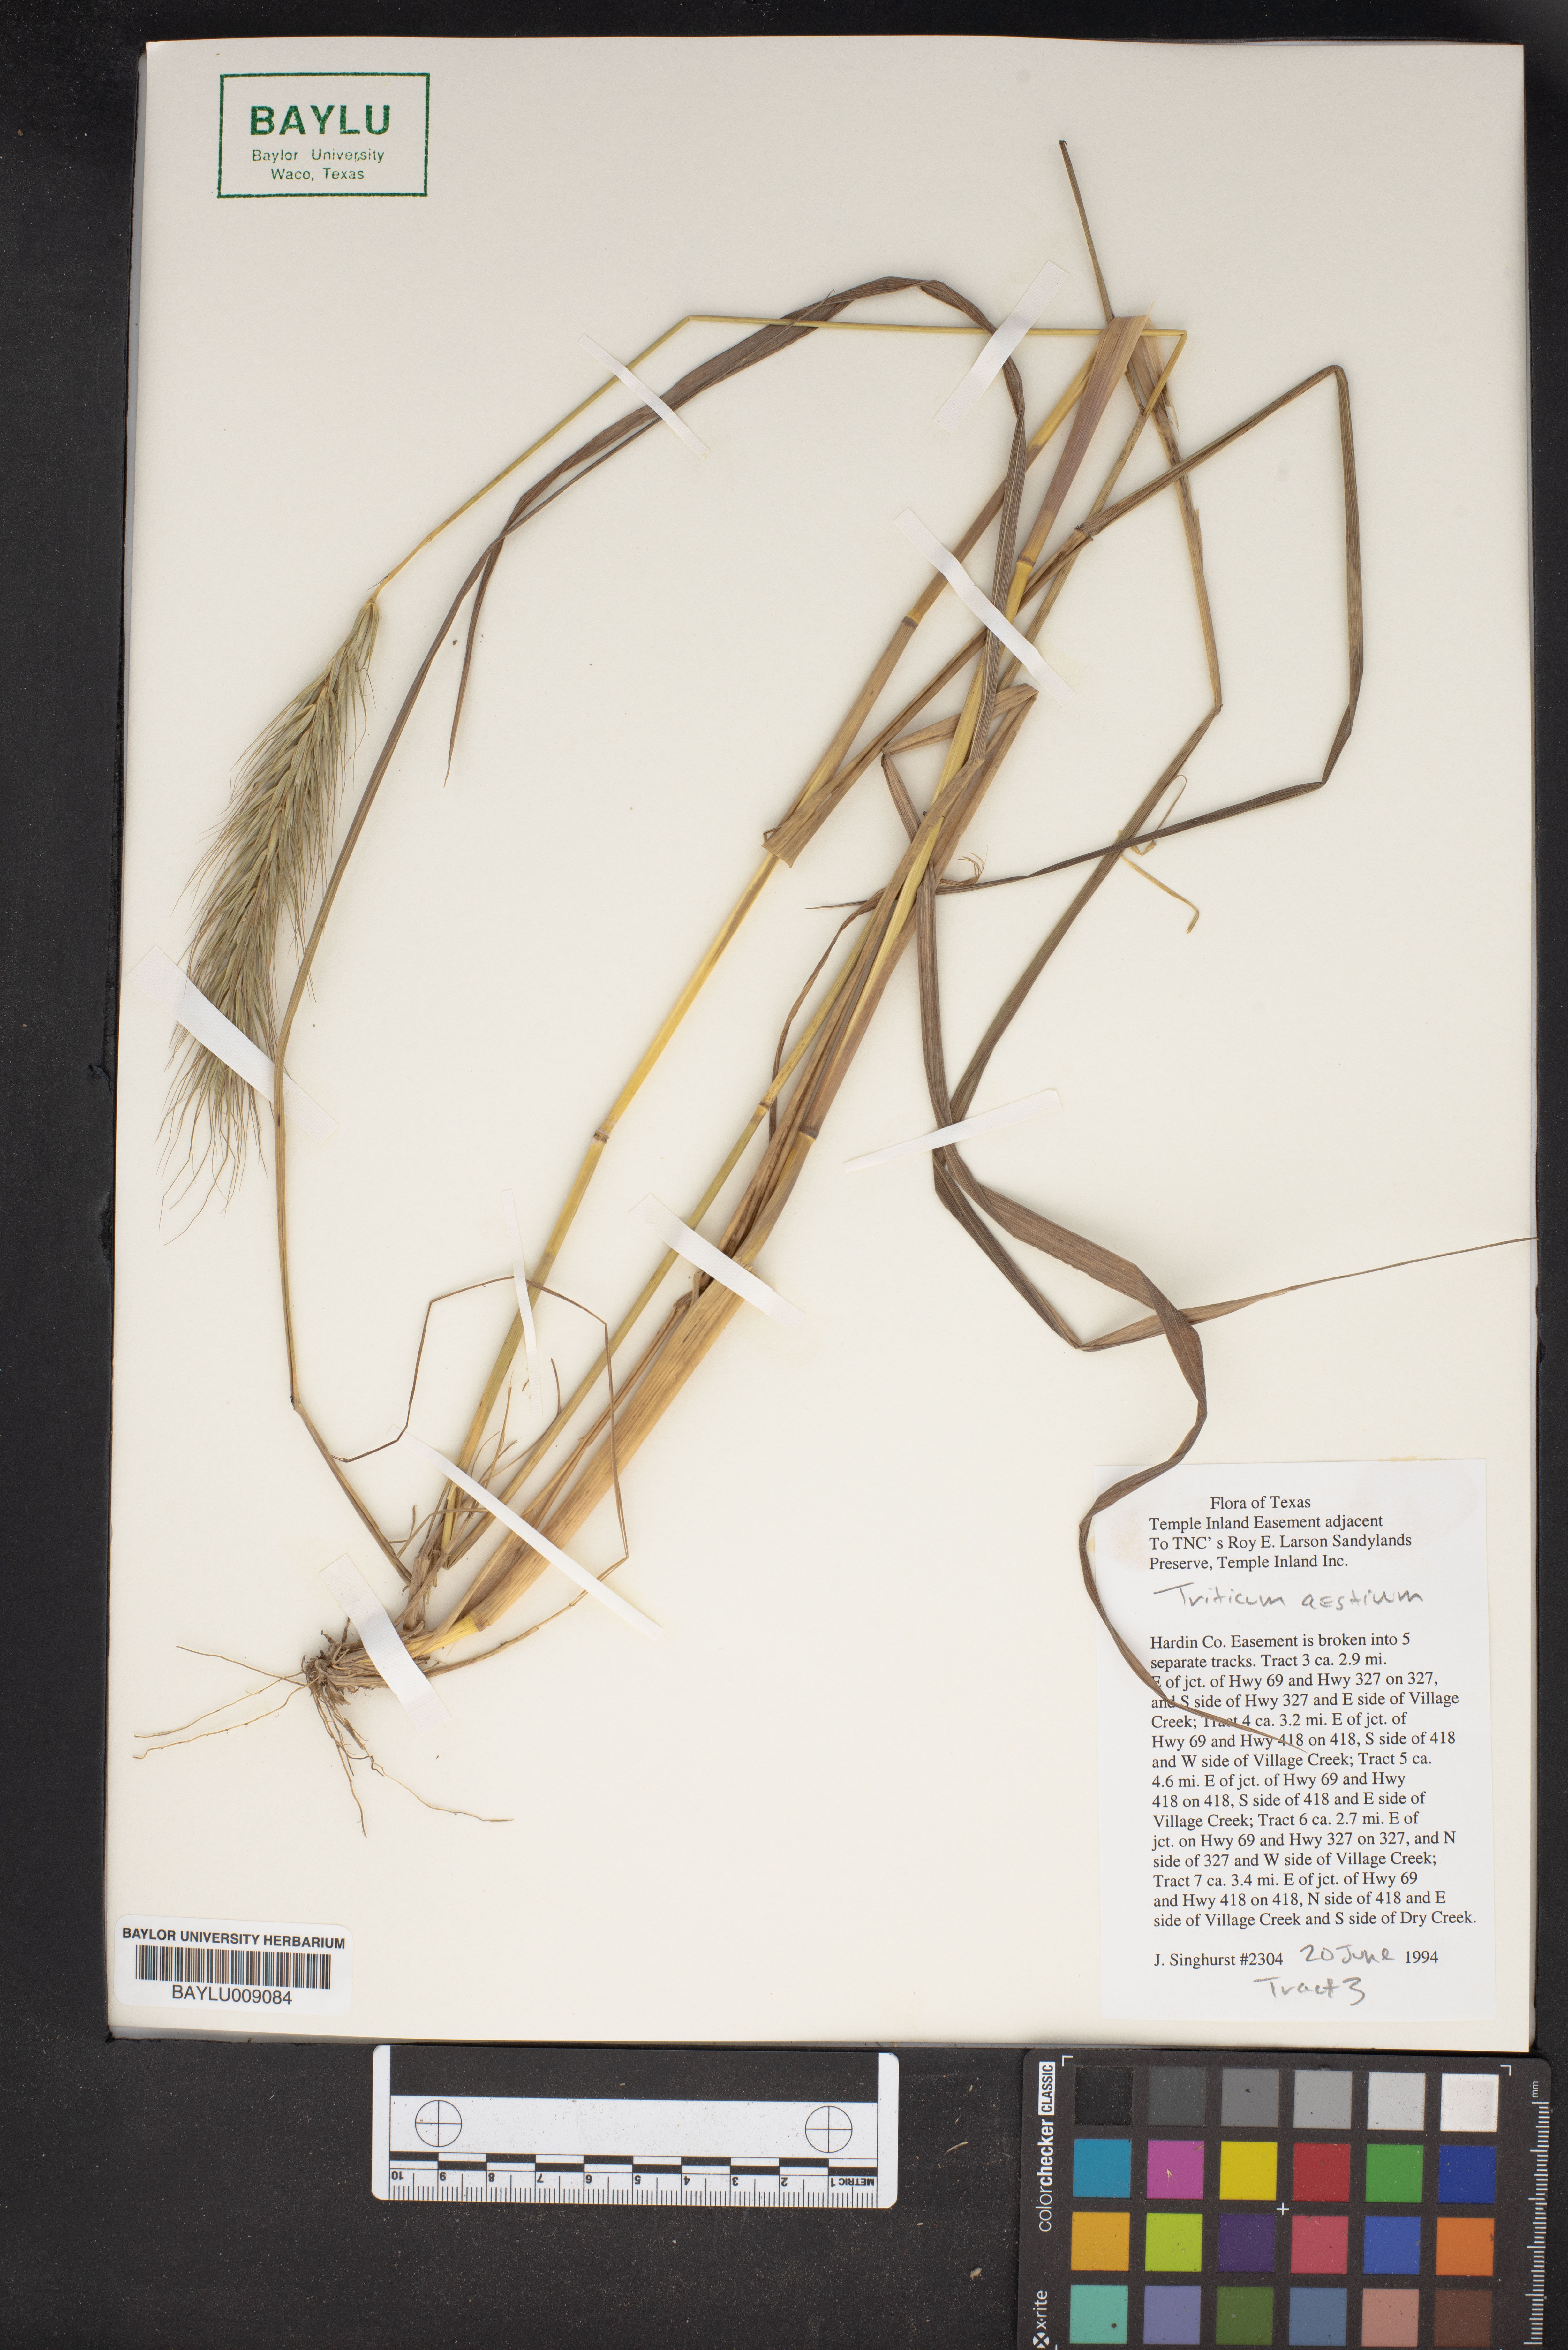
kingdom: Plantae
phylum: Tracheophyta
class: Liliopsida
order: Poales
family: Poaceae
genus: Triticum
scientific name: Triticum aestivum
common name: Common wheat
